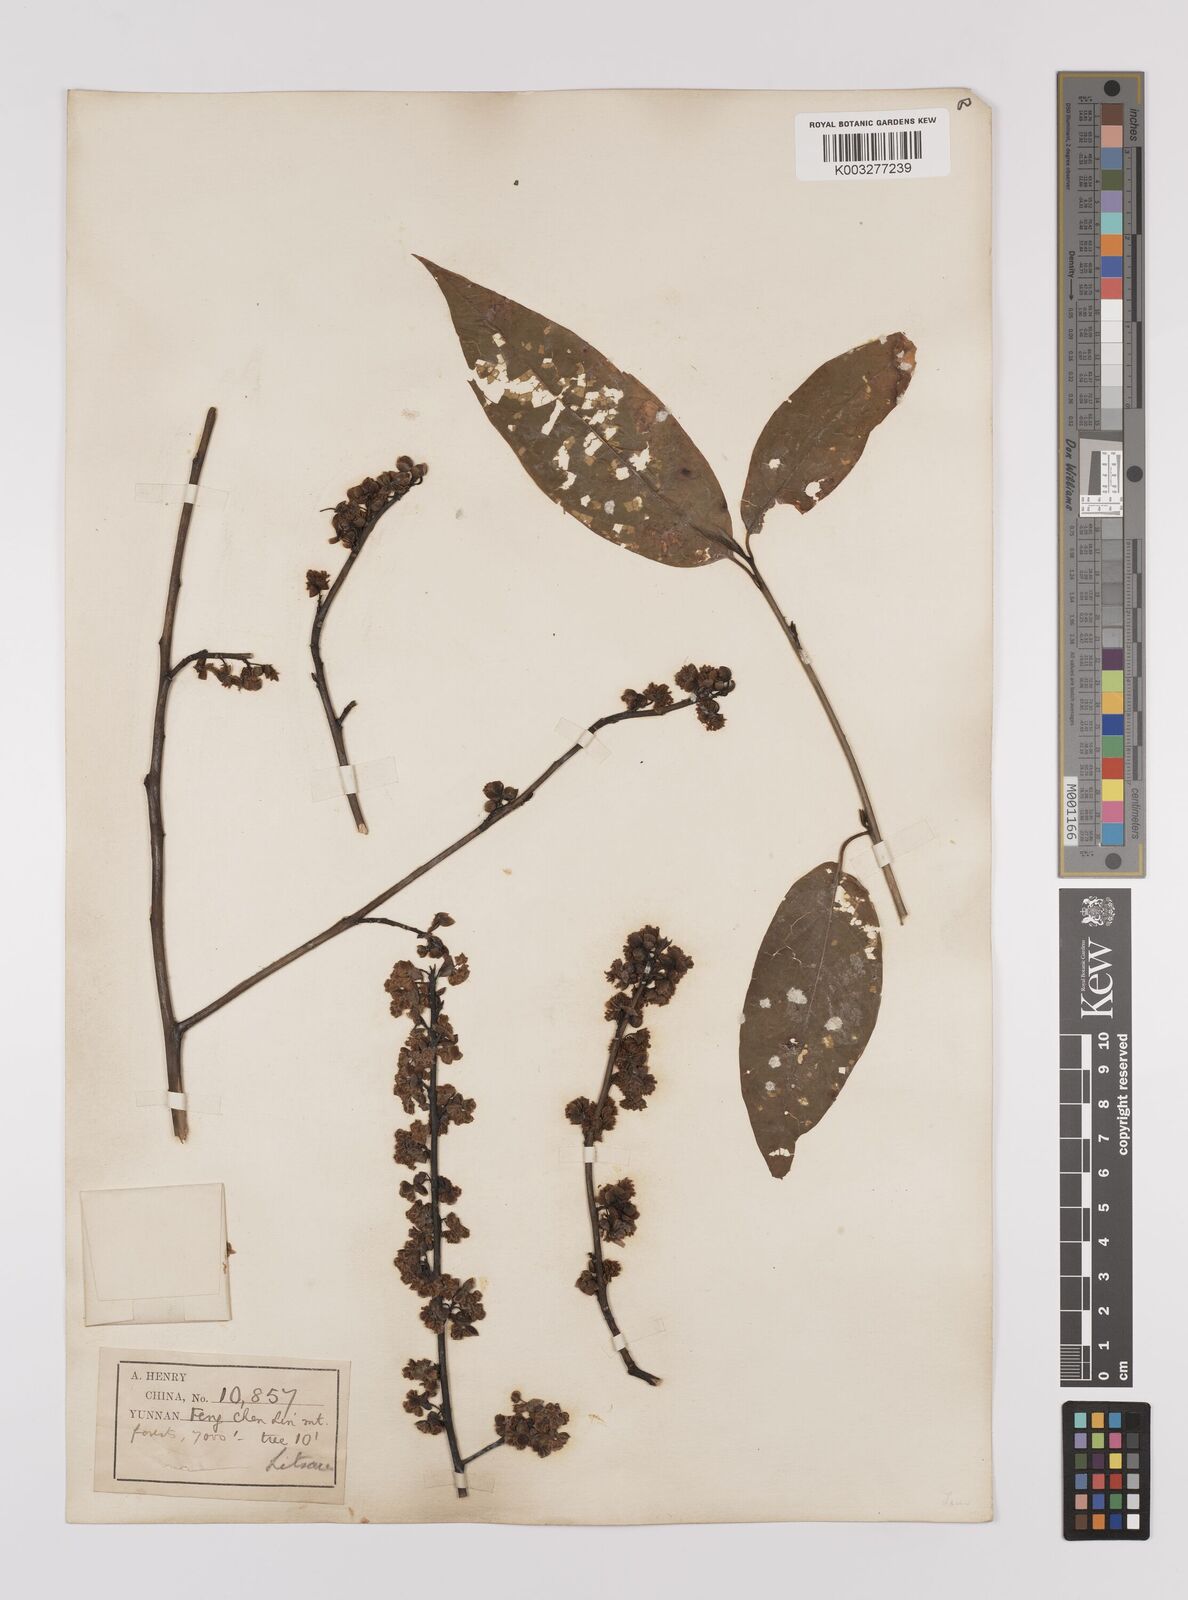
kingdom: Plantae
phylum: Tracheophyta
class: Magnoliopsida
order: Laurales
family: Lauraceae
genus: Lindera
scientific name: Lindera pipericarpa
